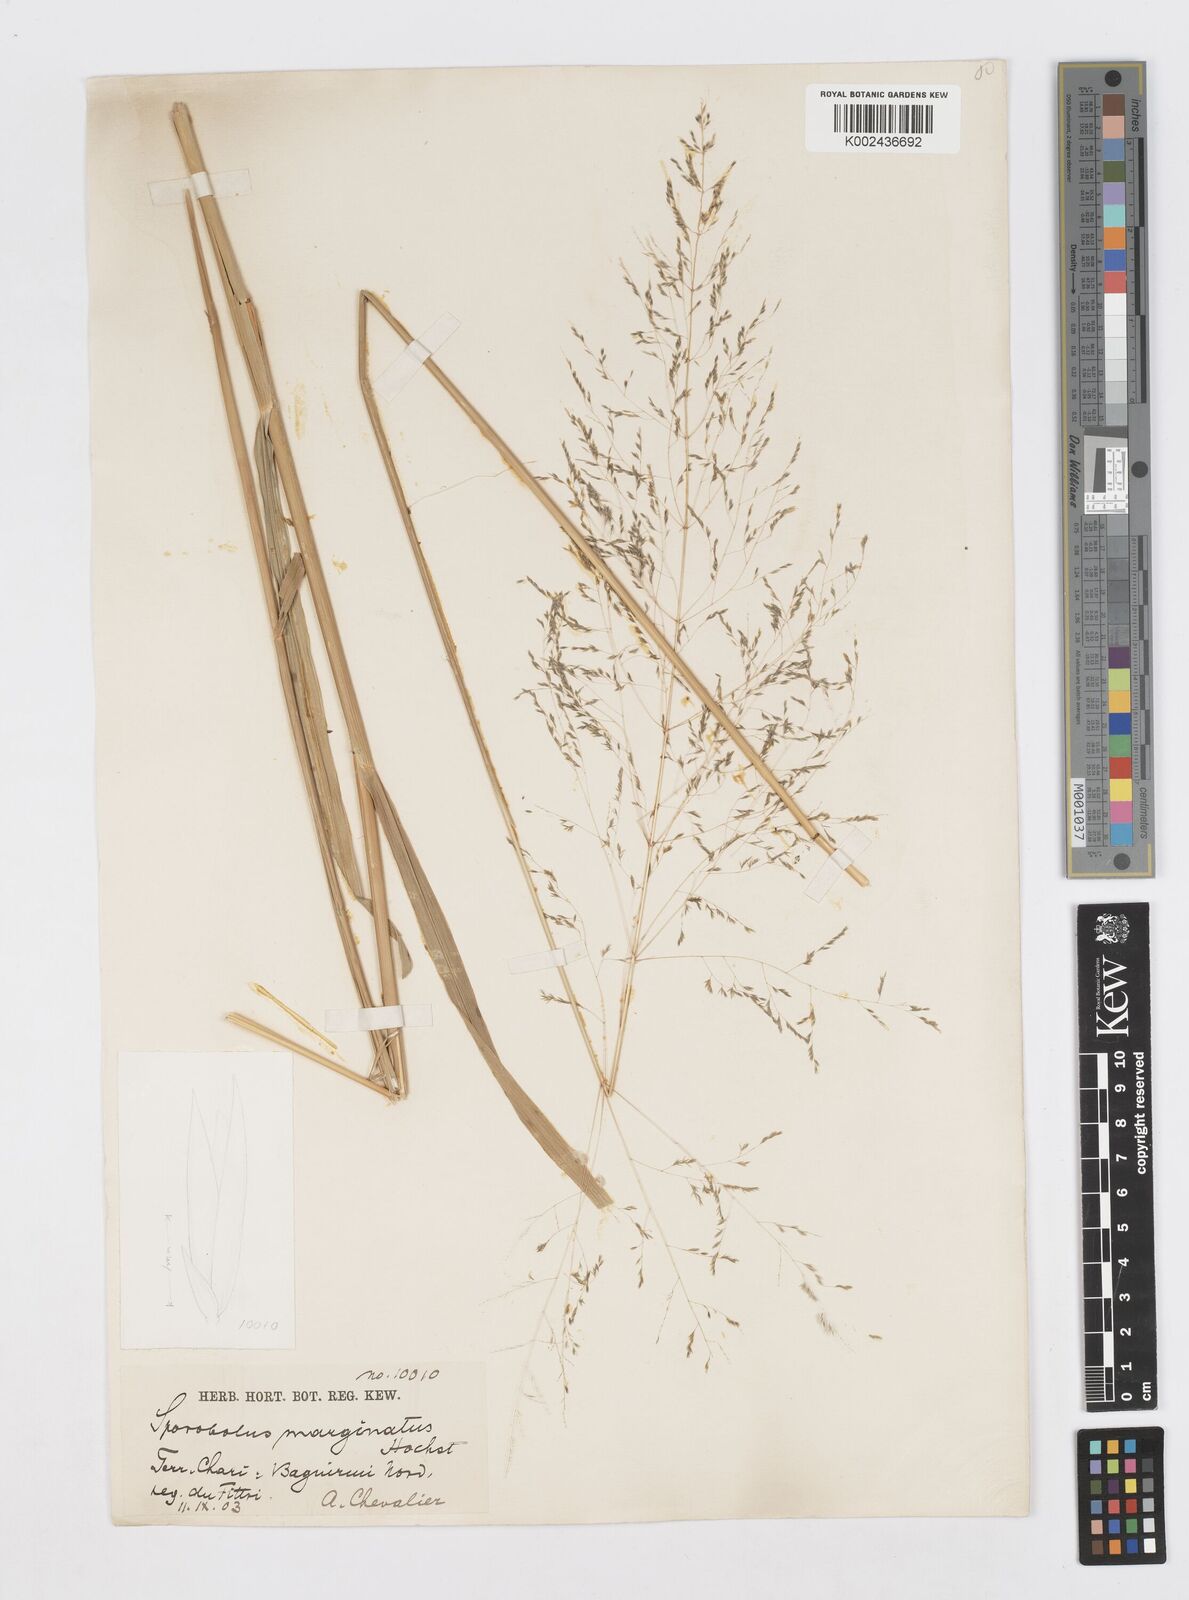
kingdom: Plantae
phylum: Tracheophyta
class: Liliopsida
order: Poales
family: Poaceae
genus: Sporobolus
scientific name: Sporobolus ioclados
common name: Pan dropseed
